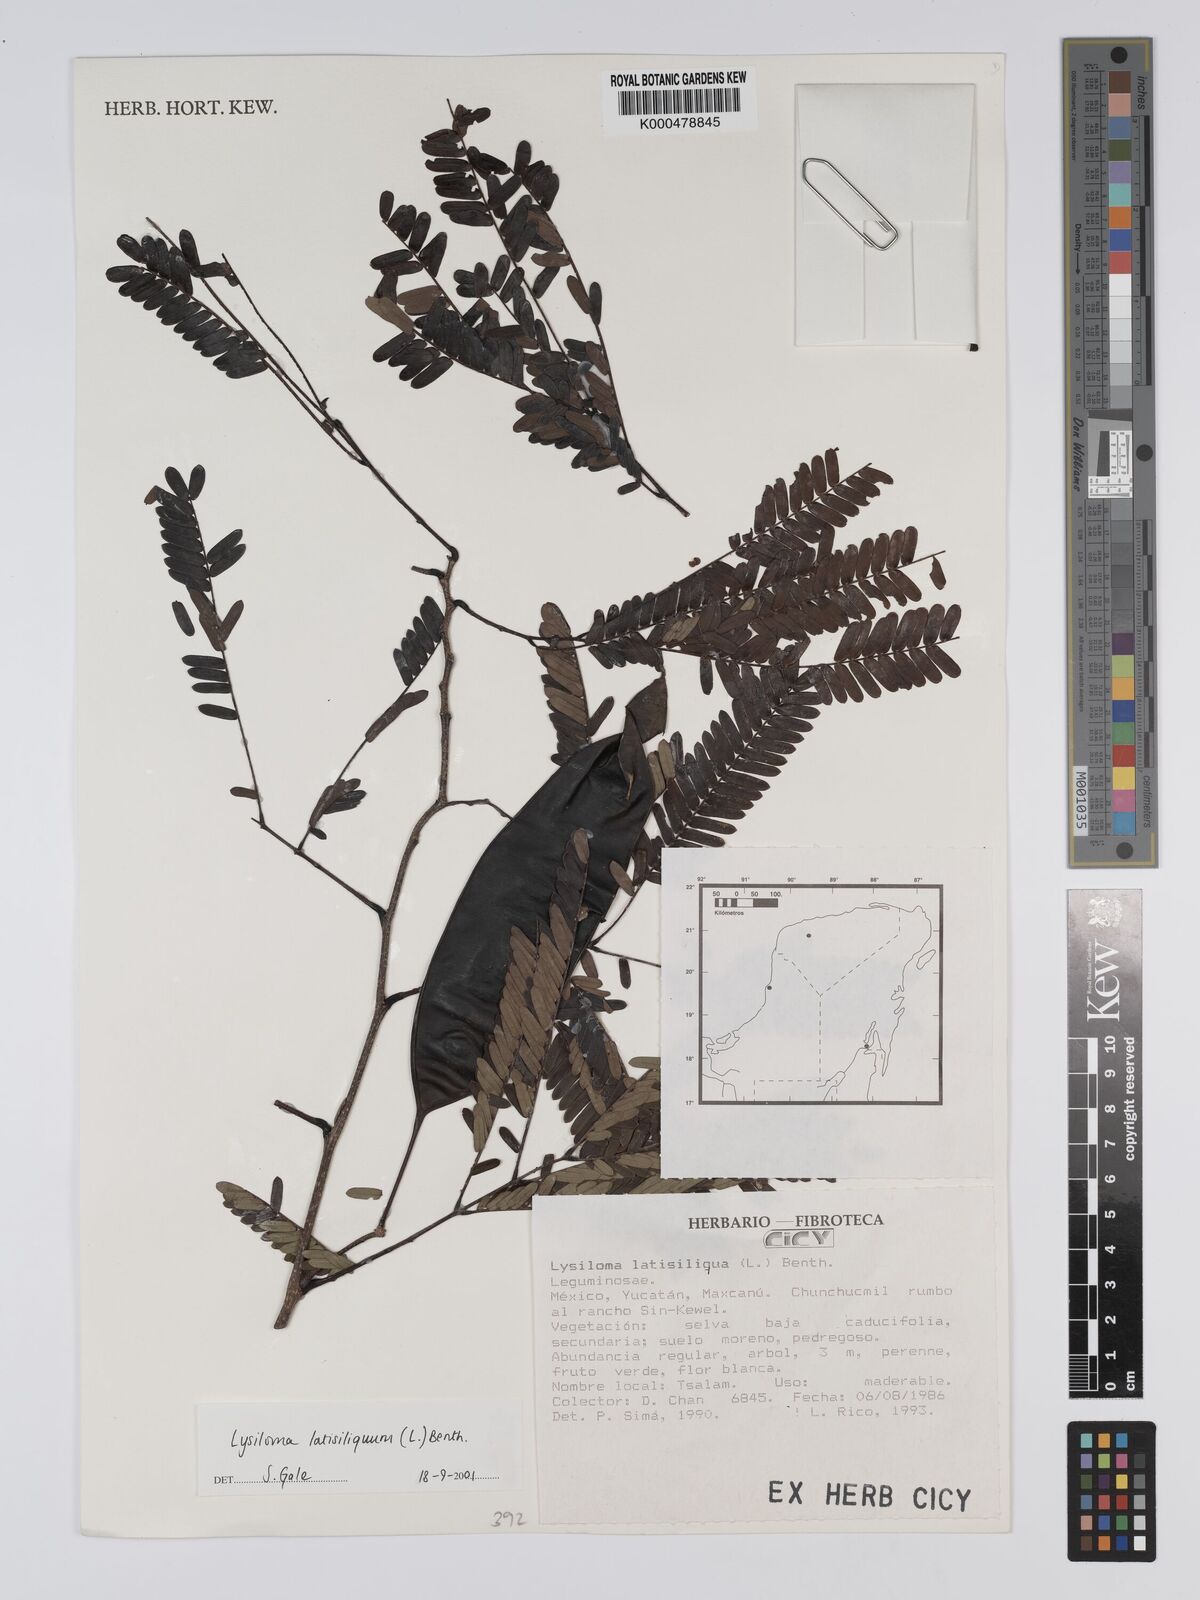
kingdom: Plantae
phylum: Tracheophyta
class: Magnoliopsida
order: Fabales
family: Fabaceae
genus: Lysiloma
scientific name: Lysiloma latisiliquum
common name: Wild tamarind
